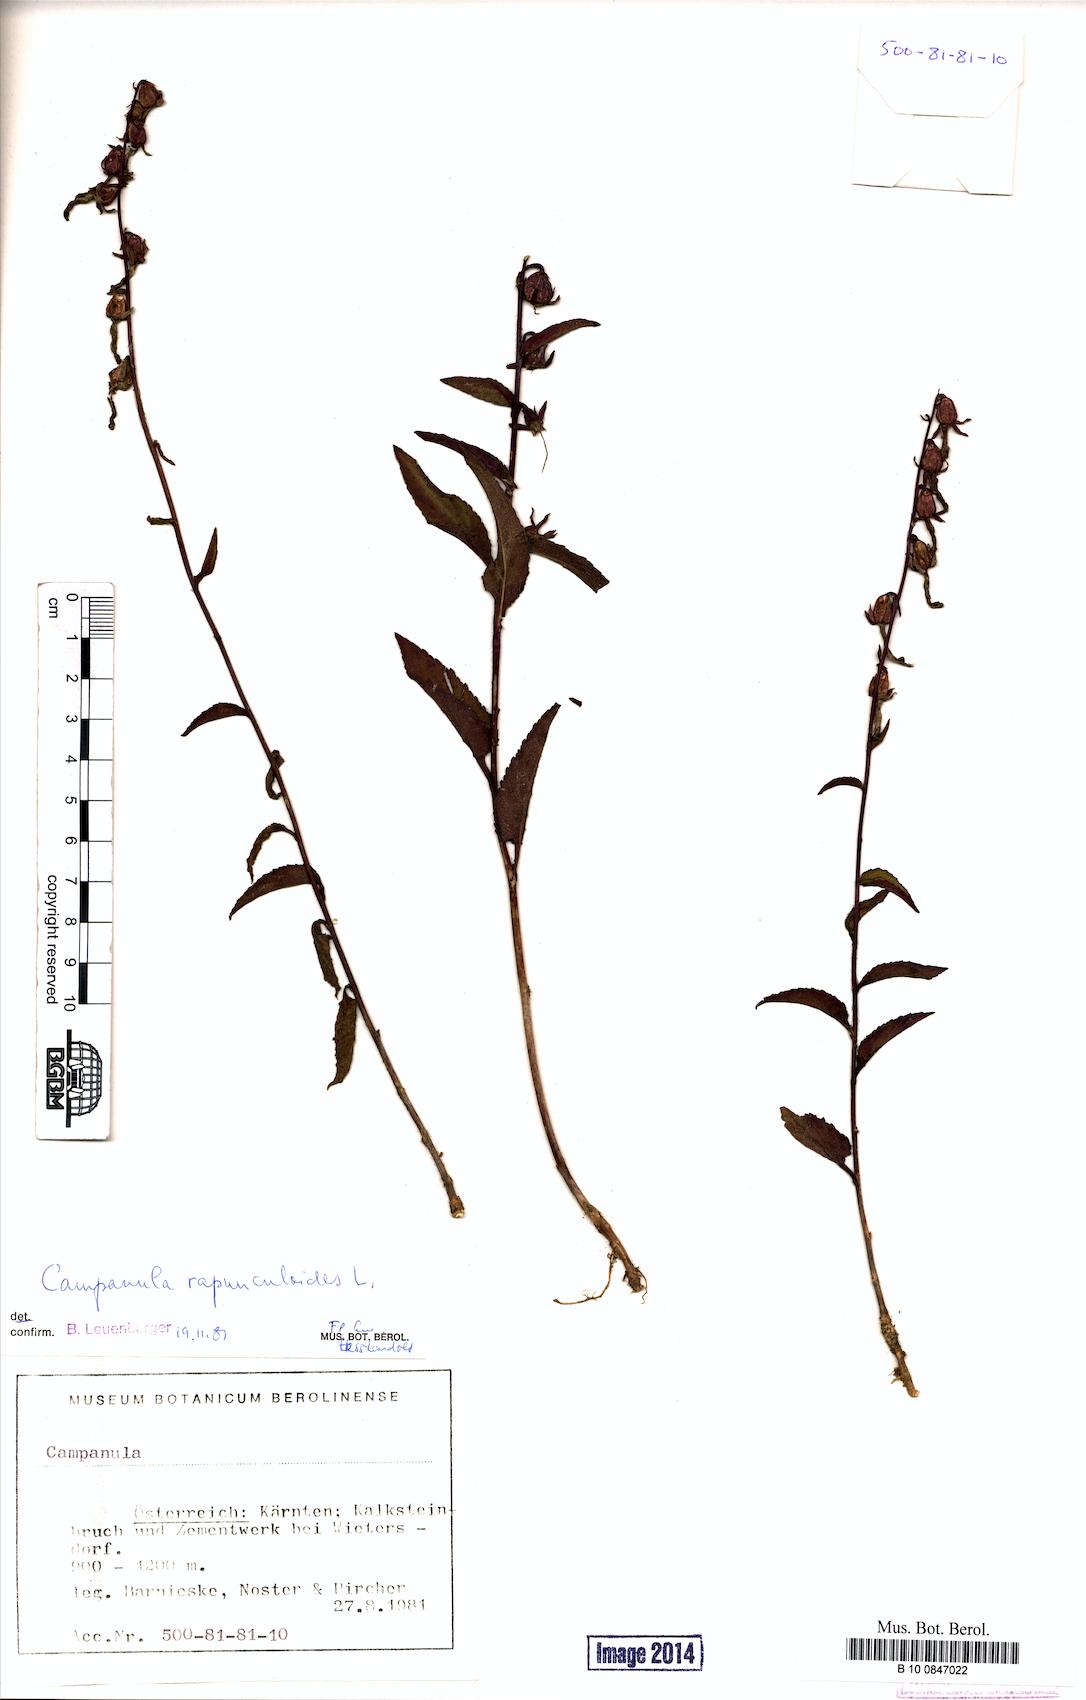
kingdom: Plantae
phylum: Tracheophyta
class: Magnoliopsida
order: Asterales
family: Campanulaceae
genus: Campanula
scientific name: Campanula rapunculoides
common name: Creeping bellflower
